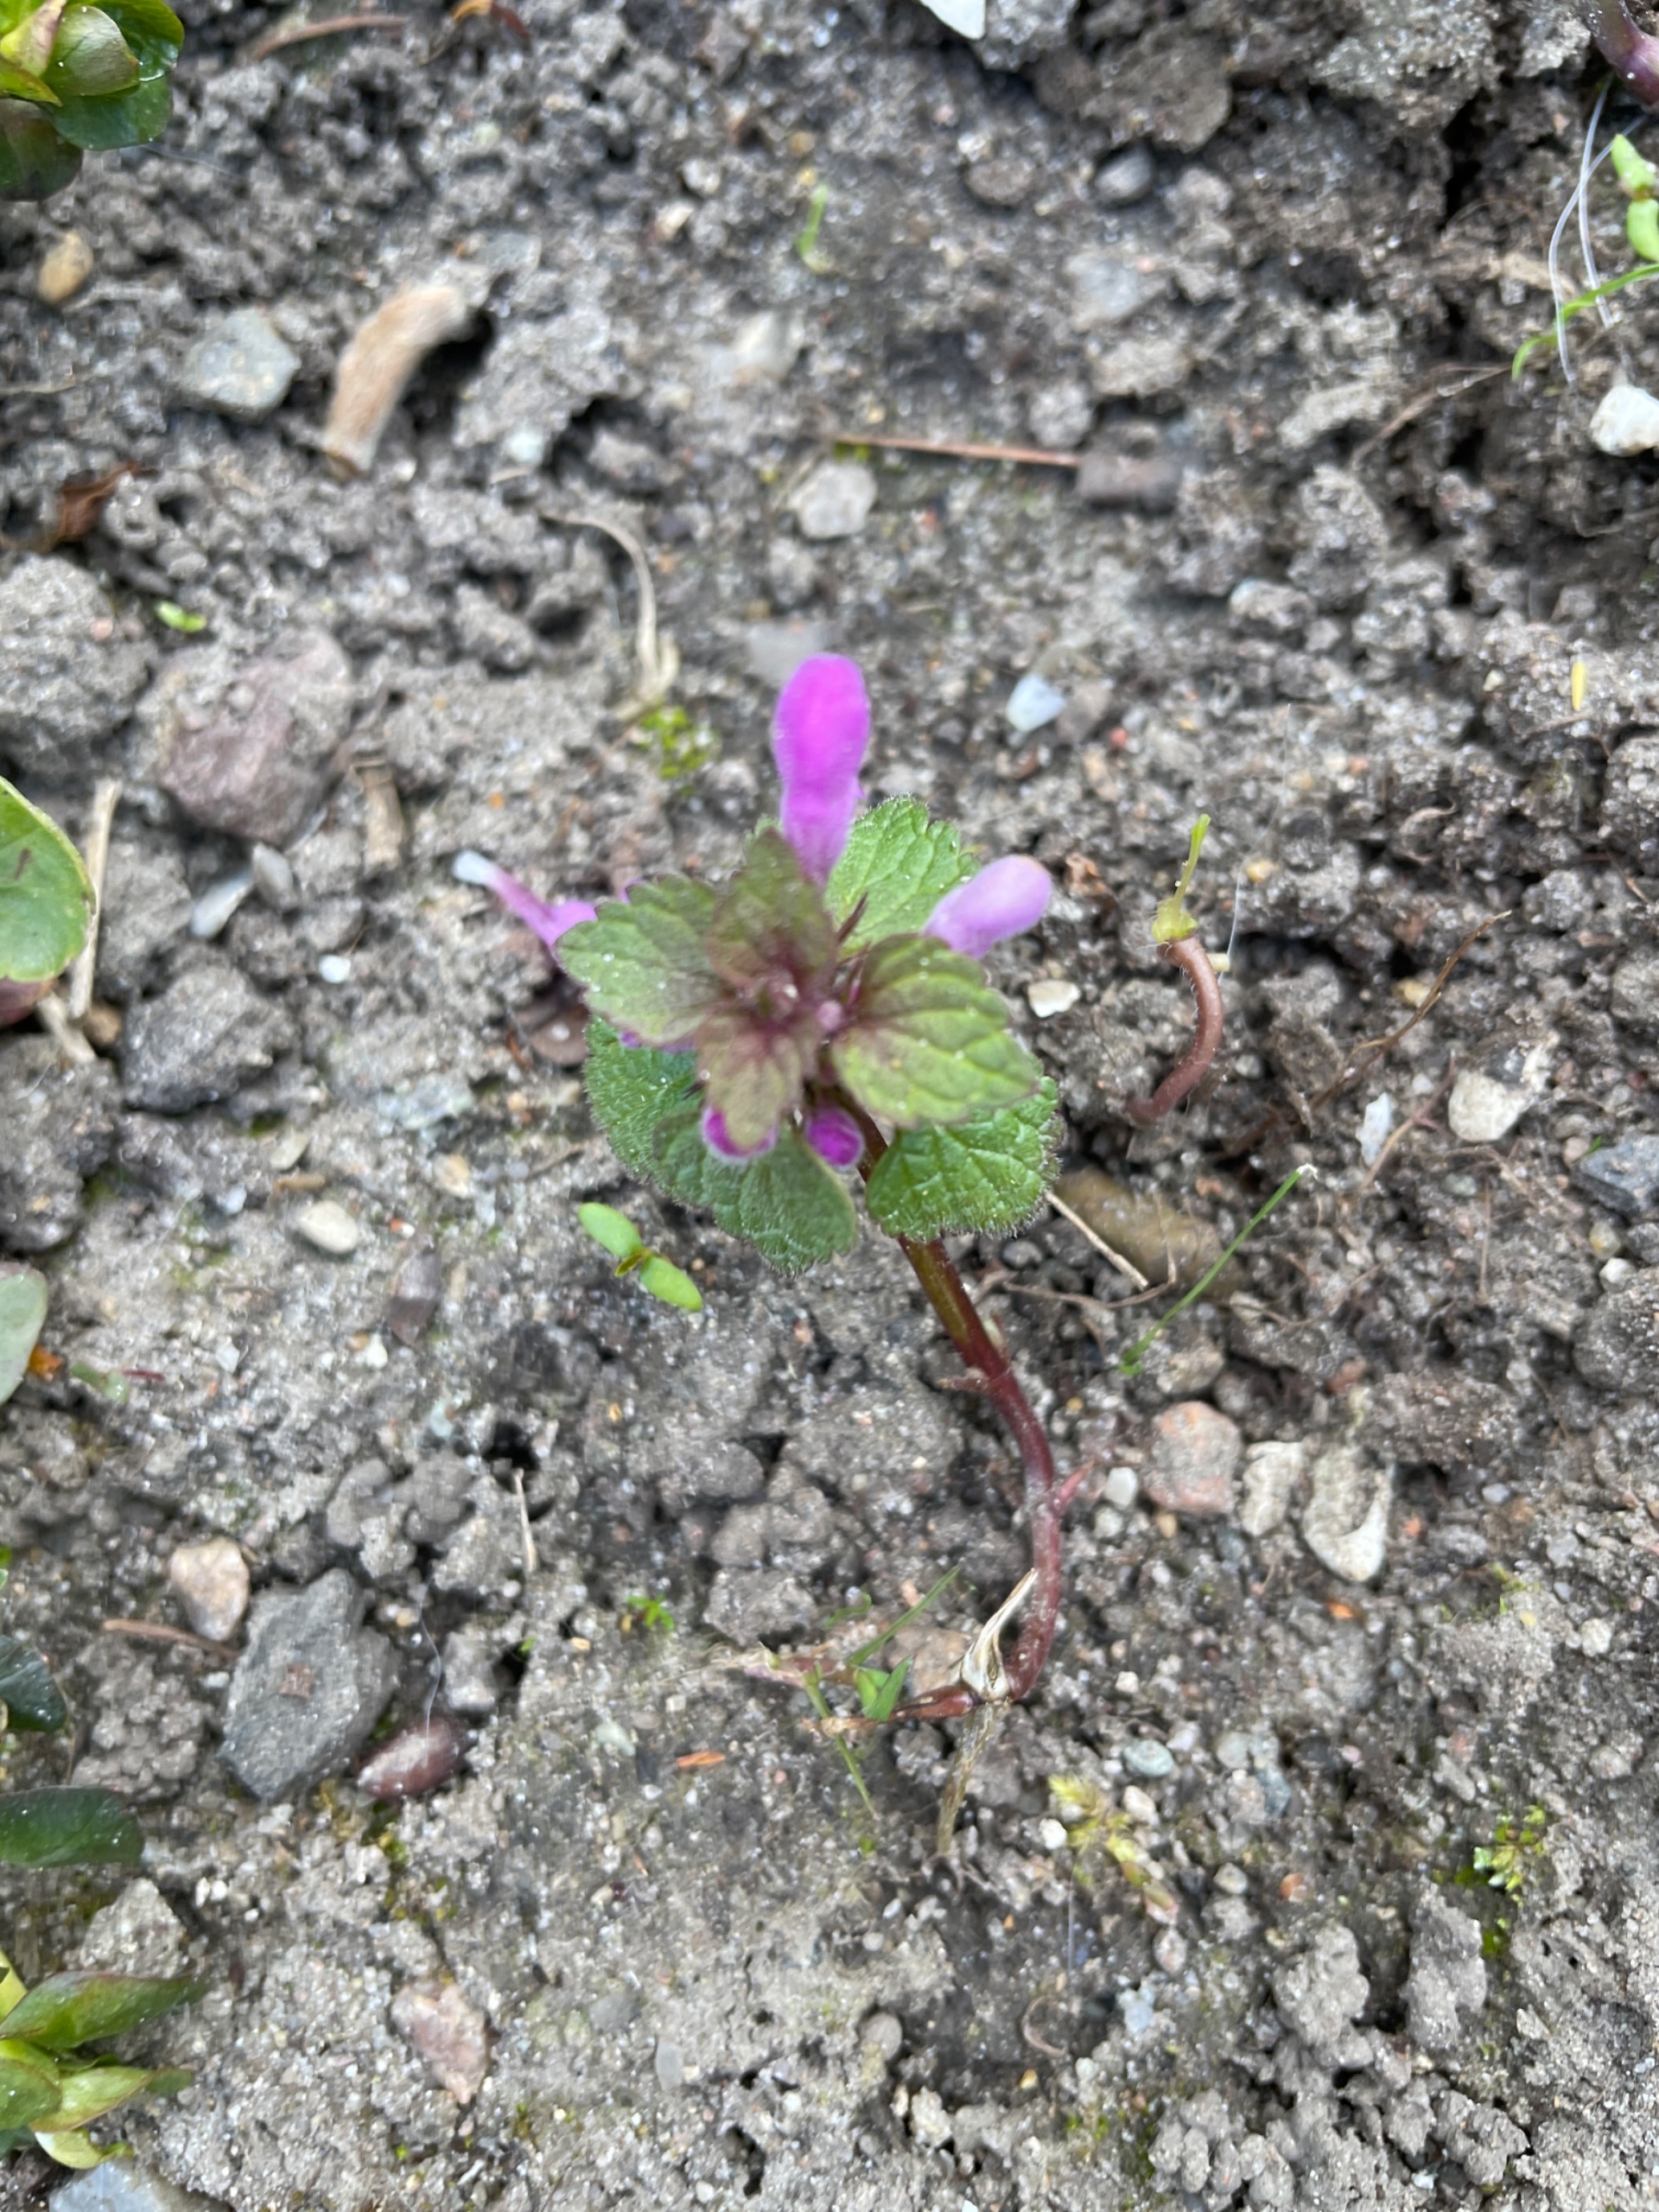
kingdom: Plantae
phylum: Tracheophyta
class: Magnoliopsida
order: Lamiales
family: Lamiaceae
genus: Lamium
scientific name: Lamium purpureum
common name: Rød tvetand
